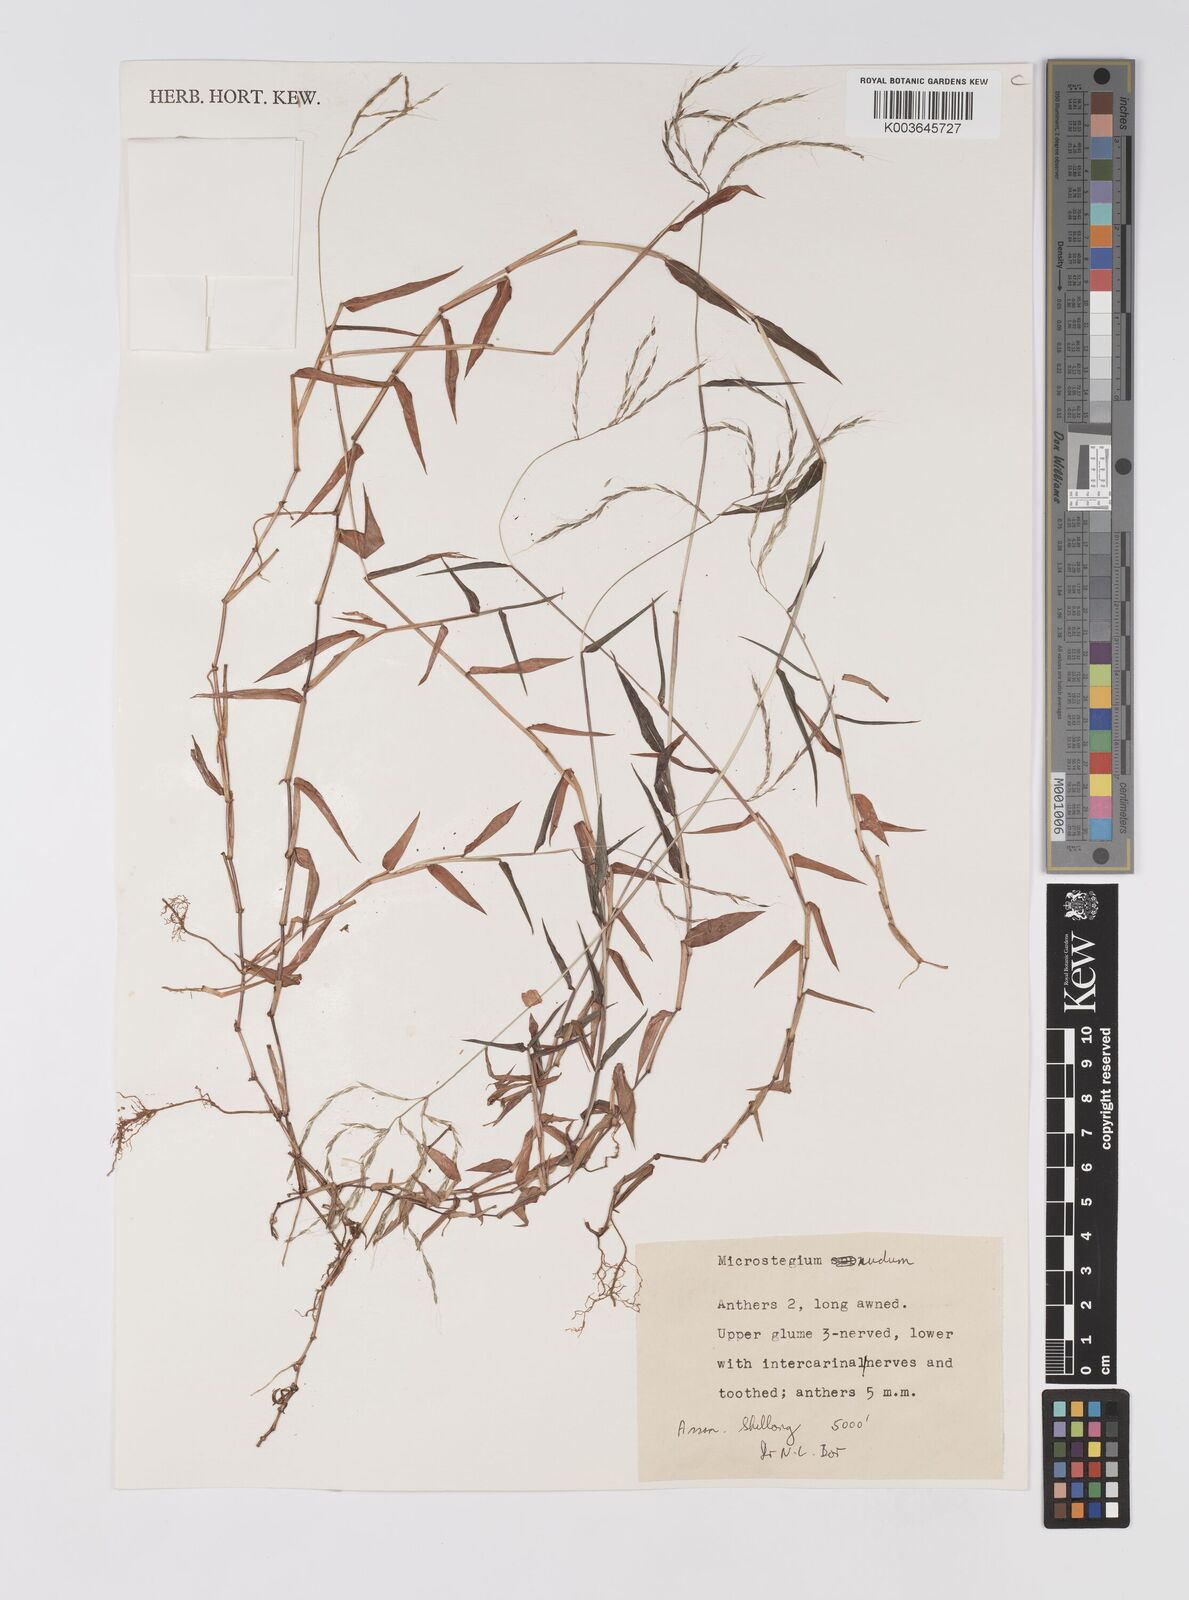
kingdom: Plantae
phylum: Tracheophyta
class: Liliopsida
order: Poales
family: Poaceae
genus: Microstegium
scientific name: Microstegium nudum
